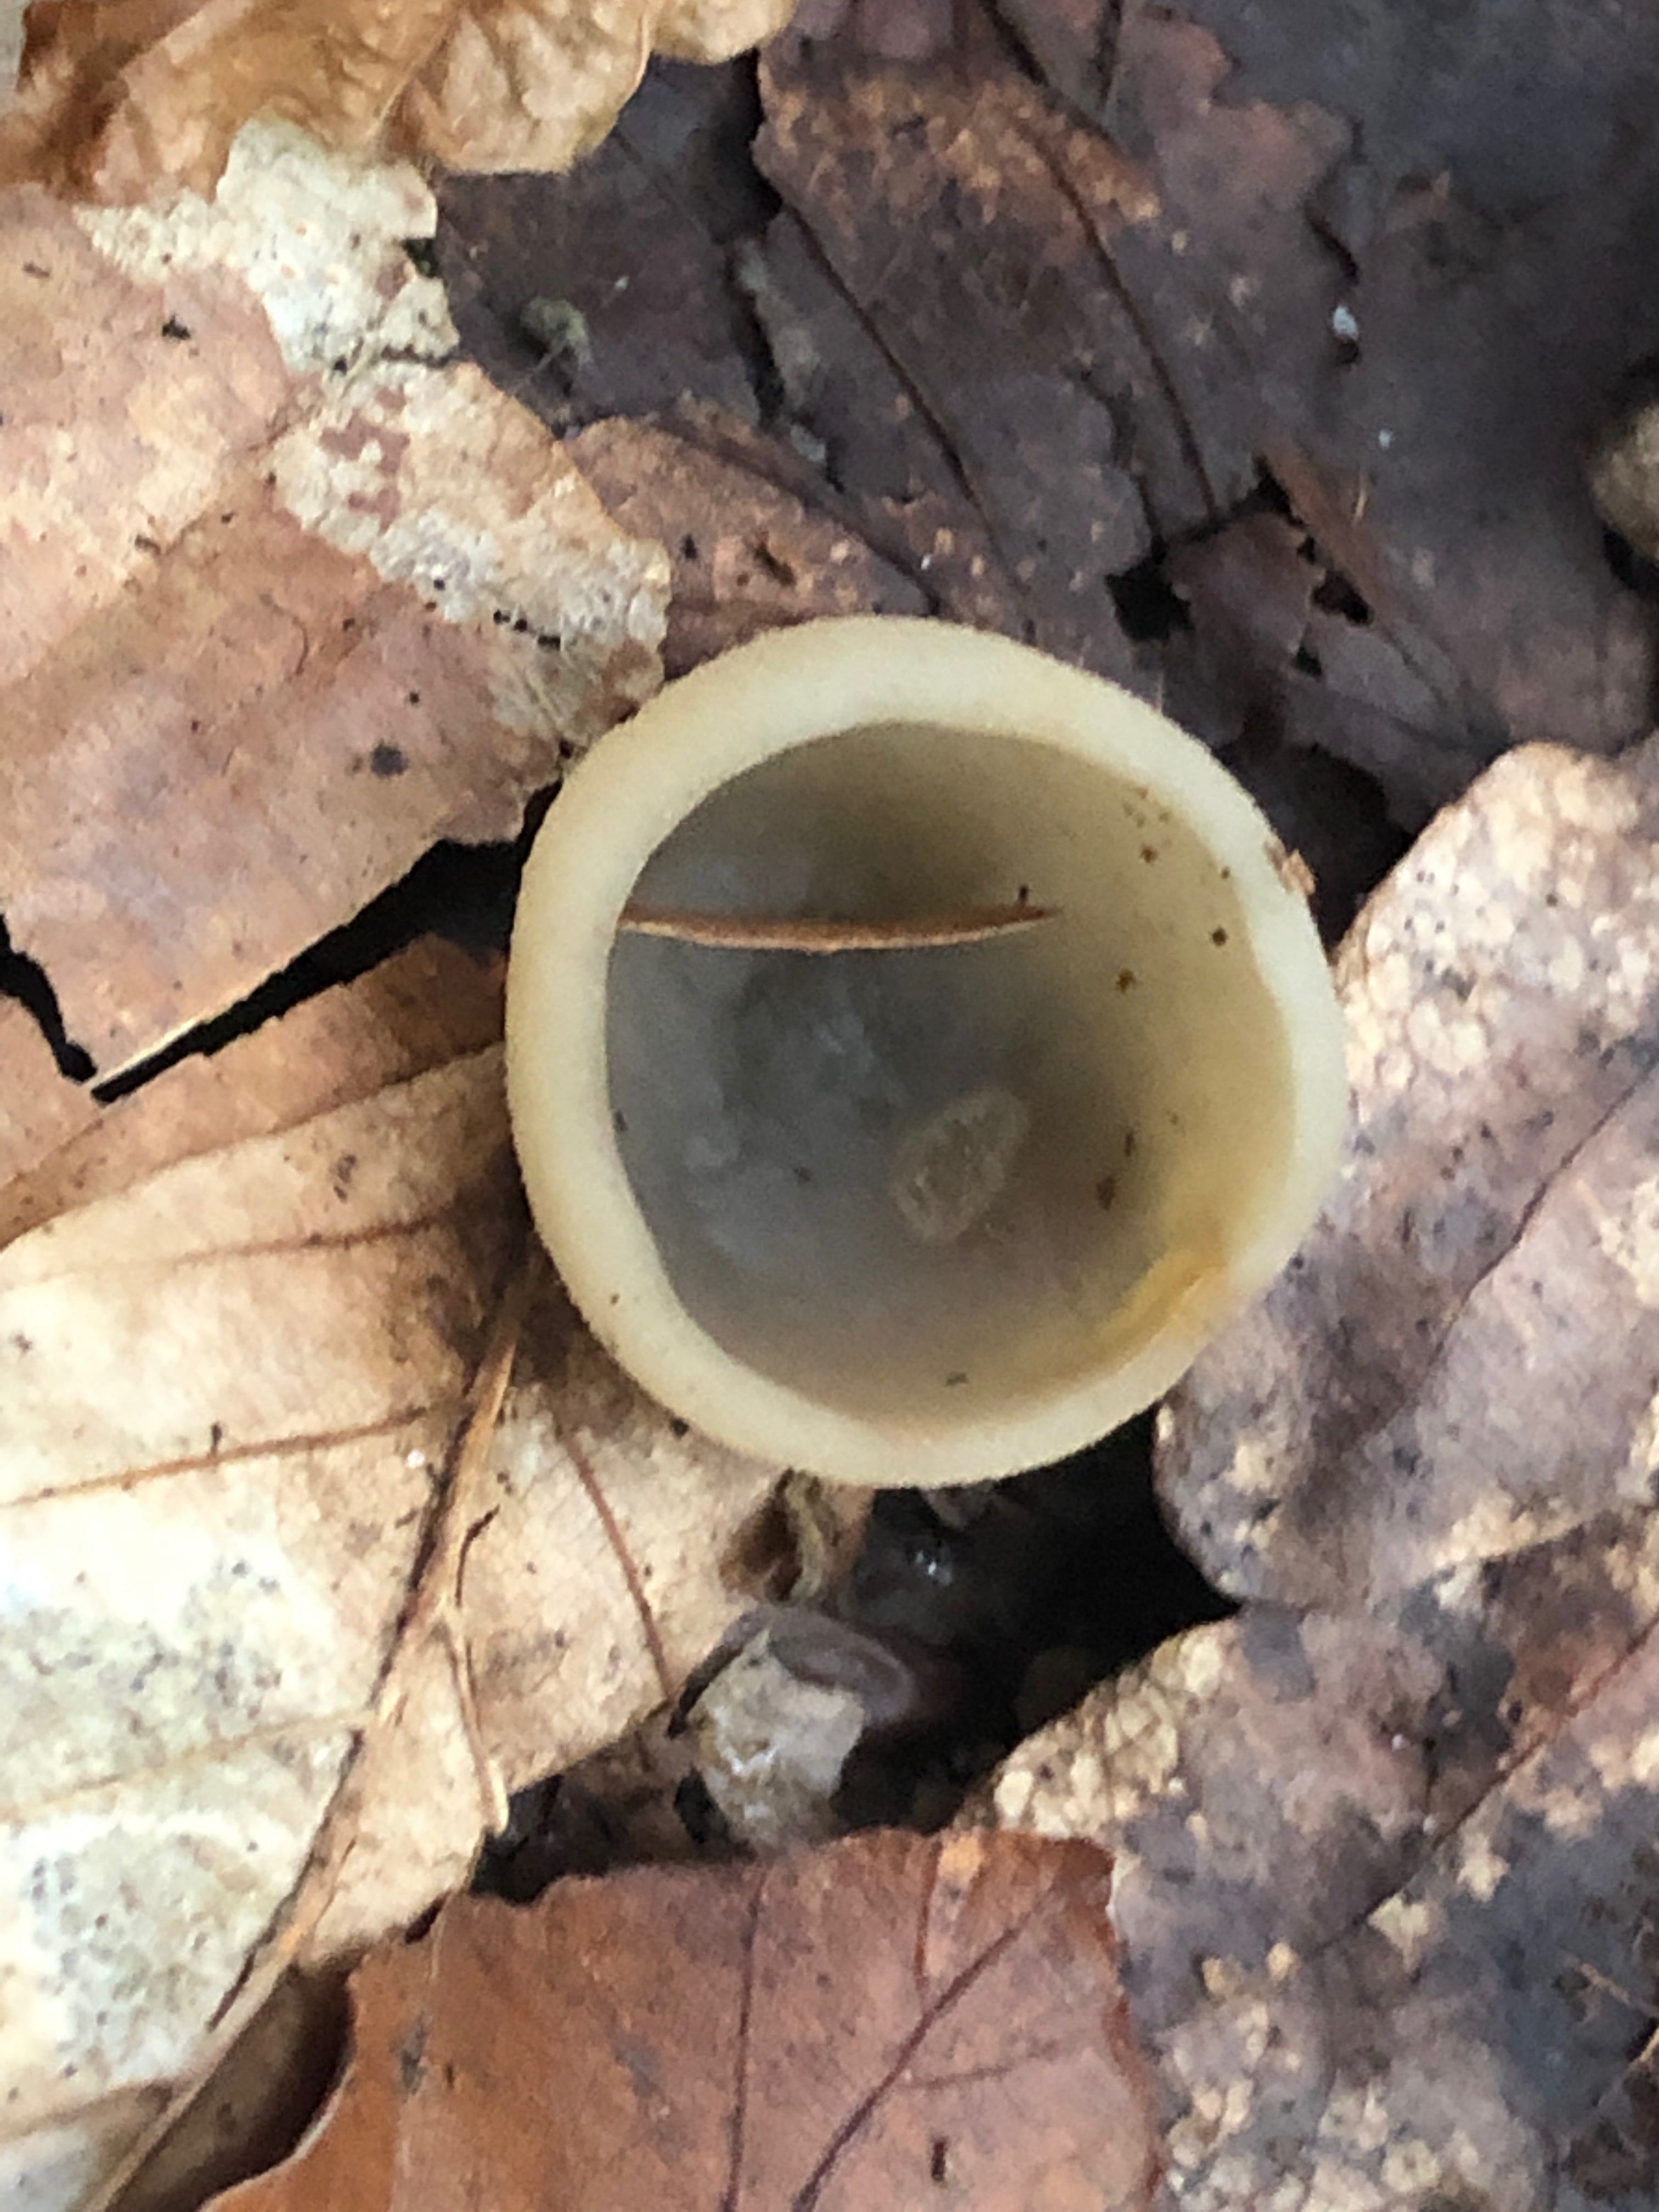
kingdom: Fungi
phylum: Ascomycota
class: Pezizomycetes
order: Pezizales
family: Pezizaceae
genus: Paragalactinia
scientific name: Paragalactinia succosella
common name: gulnende bægersvamp
